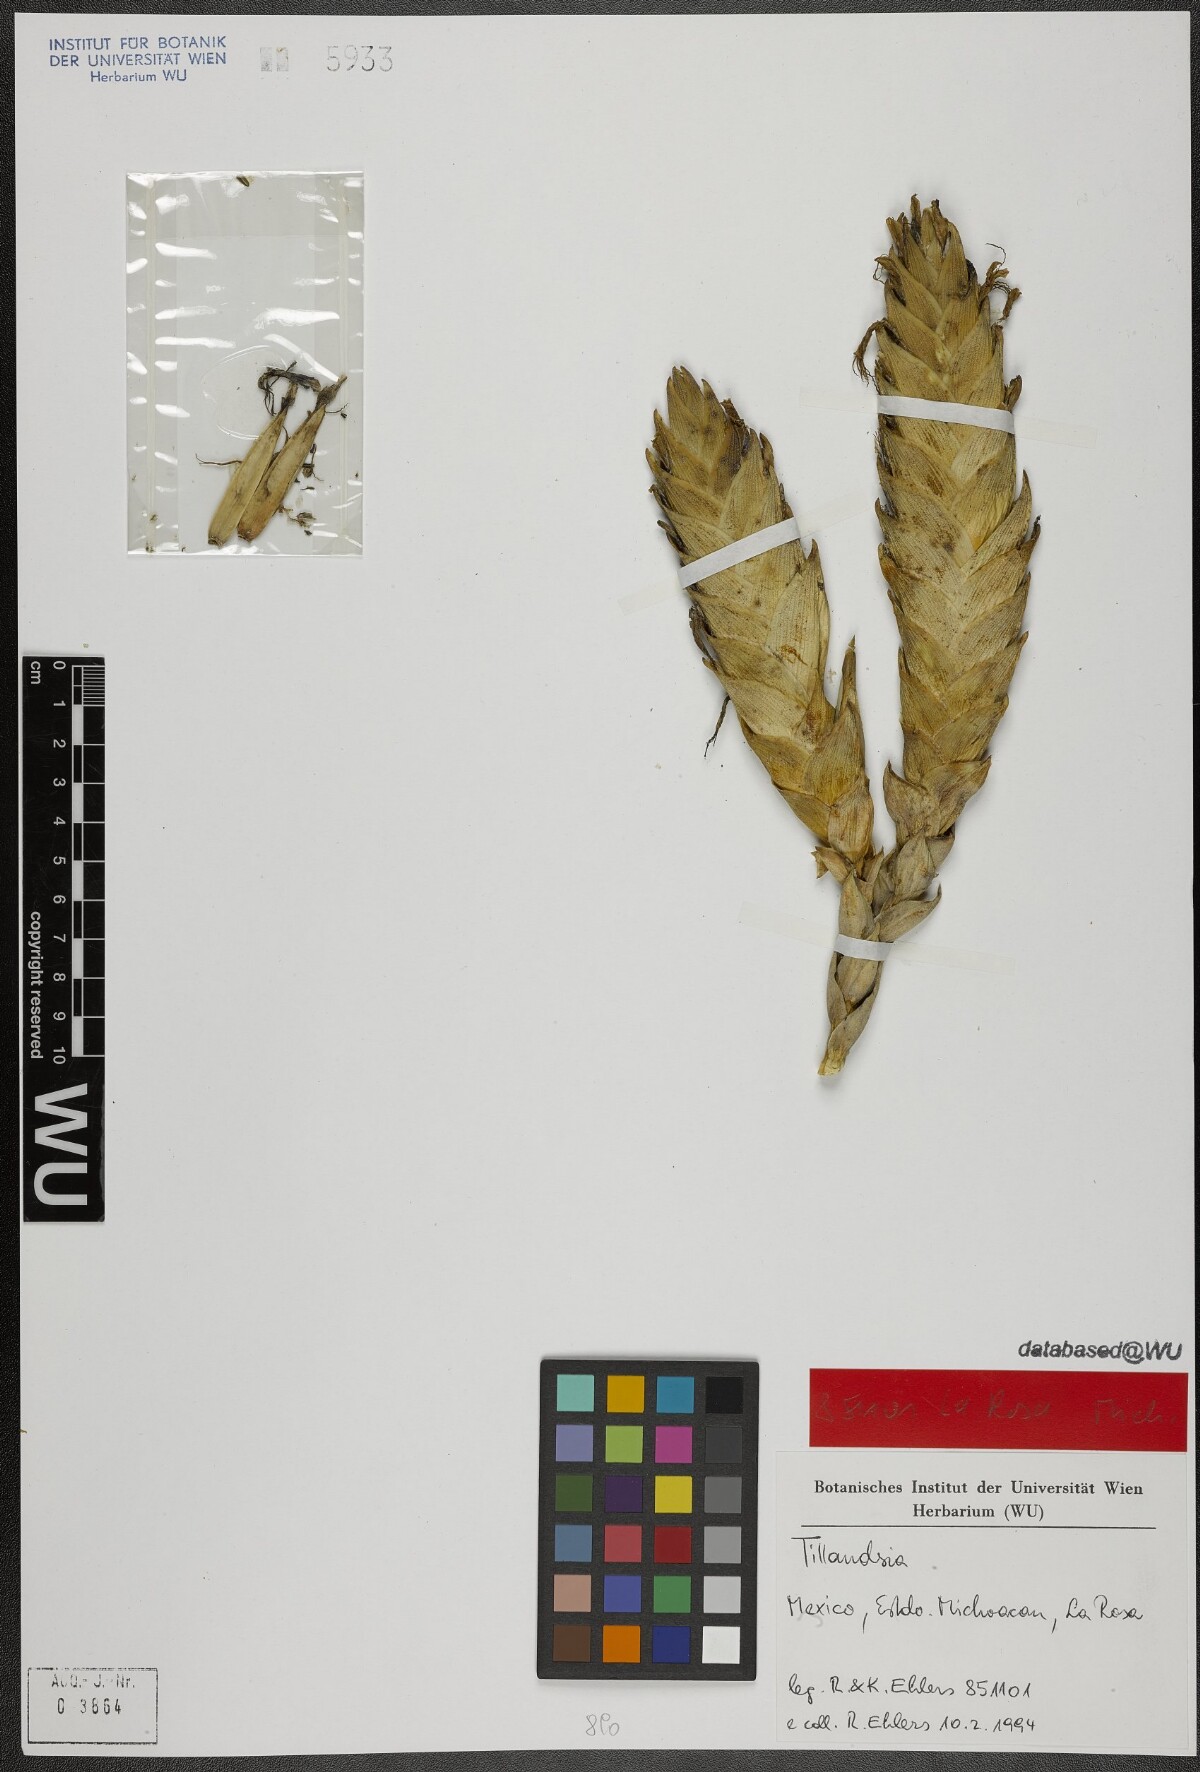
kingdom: Plantae
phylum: Tracheophyta
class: Liliopsida
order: Poales
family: Bromeliaceae
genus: Tillandsia
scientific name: Tillandsia fasciculata
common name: Giant airplant
